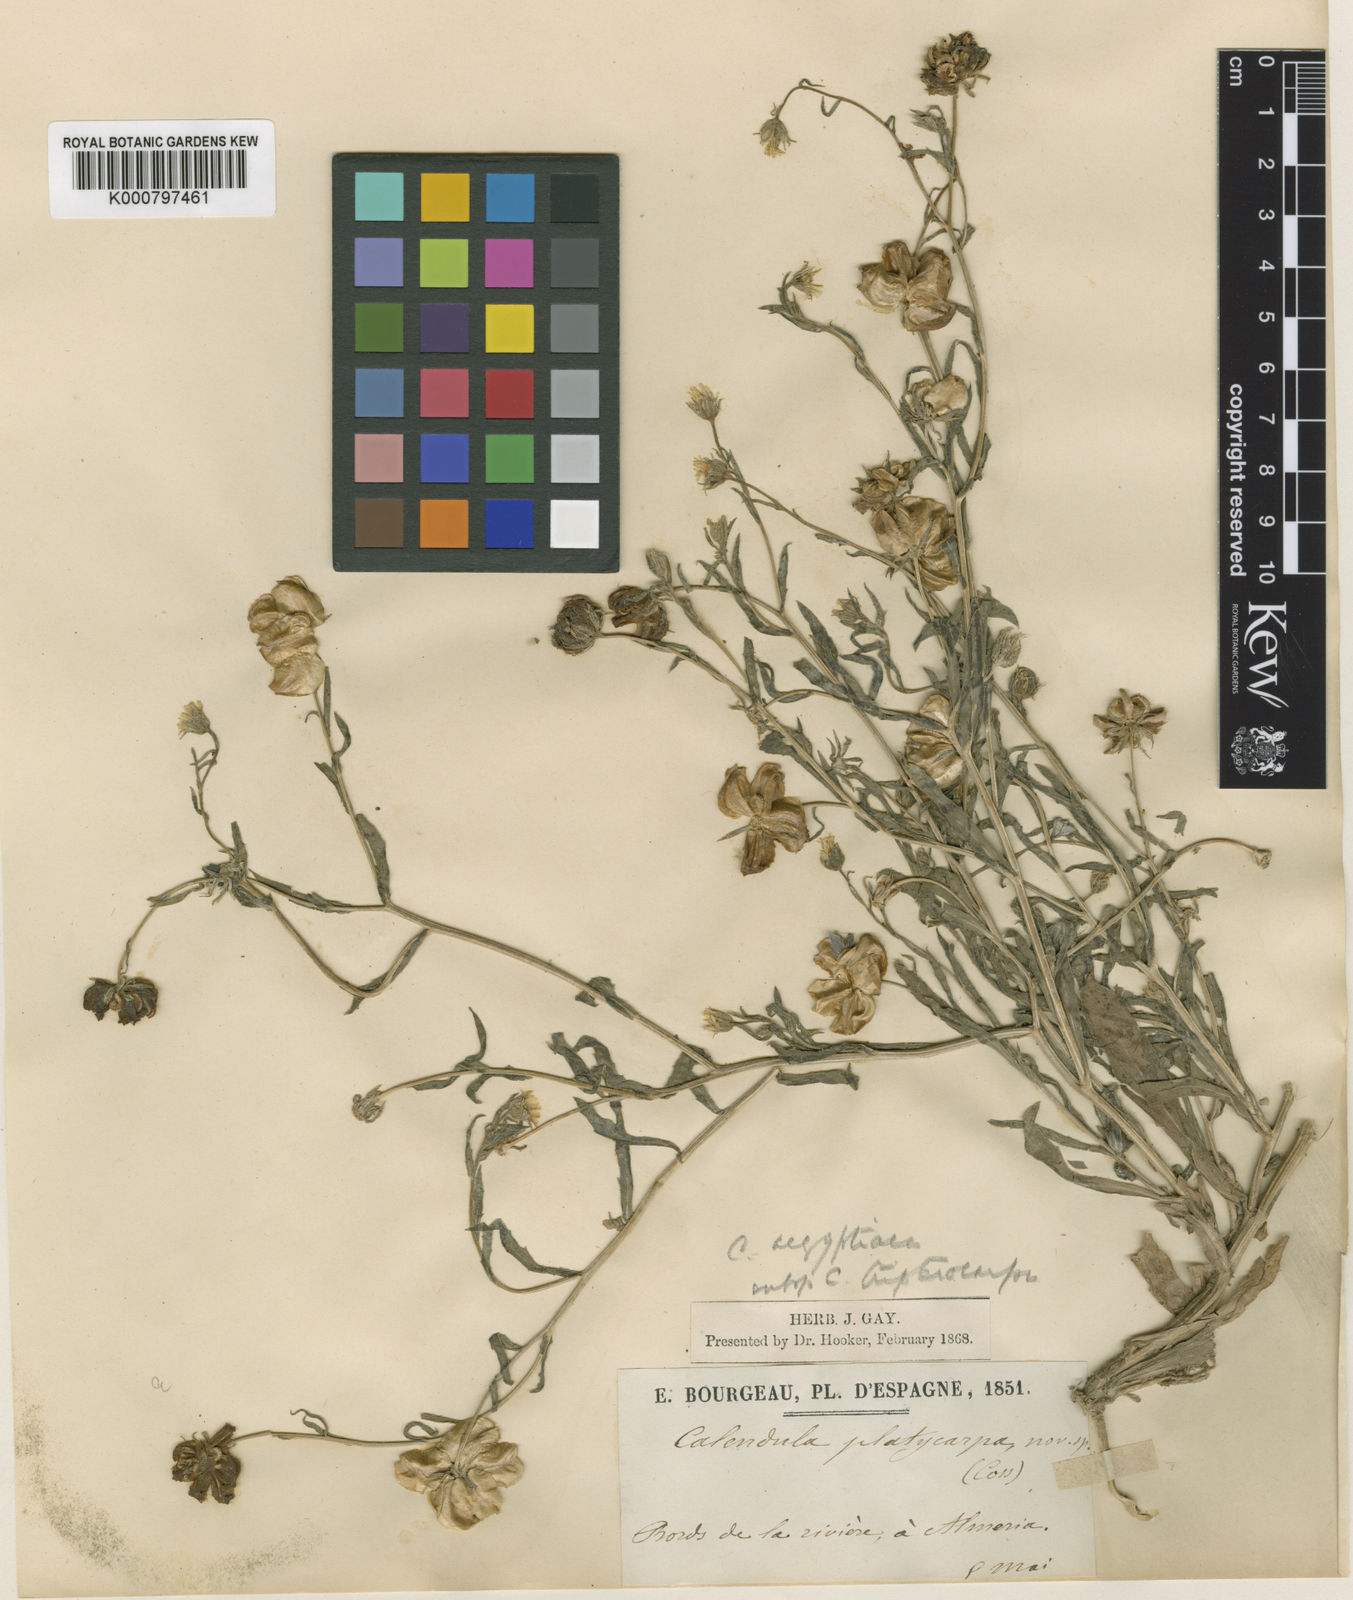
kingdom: Plantae
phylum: Tracheophyta
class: Magnoliopsida
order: Asterales
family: Asteraceae
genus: Calendula
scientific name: Calendula tripterocarpa
